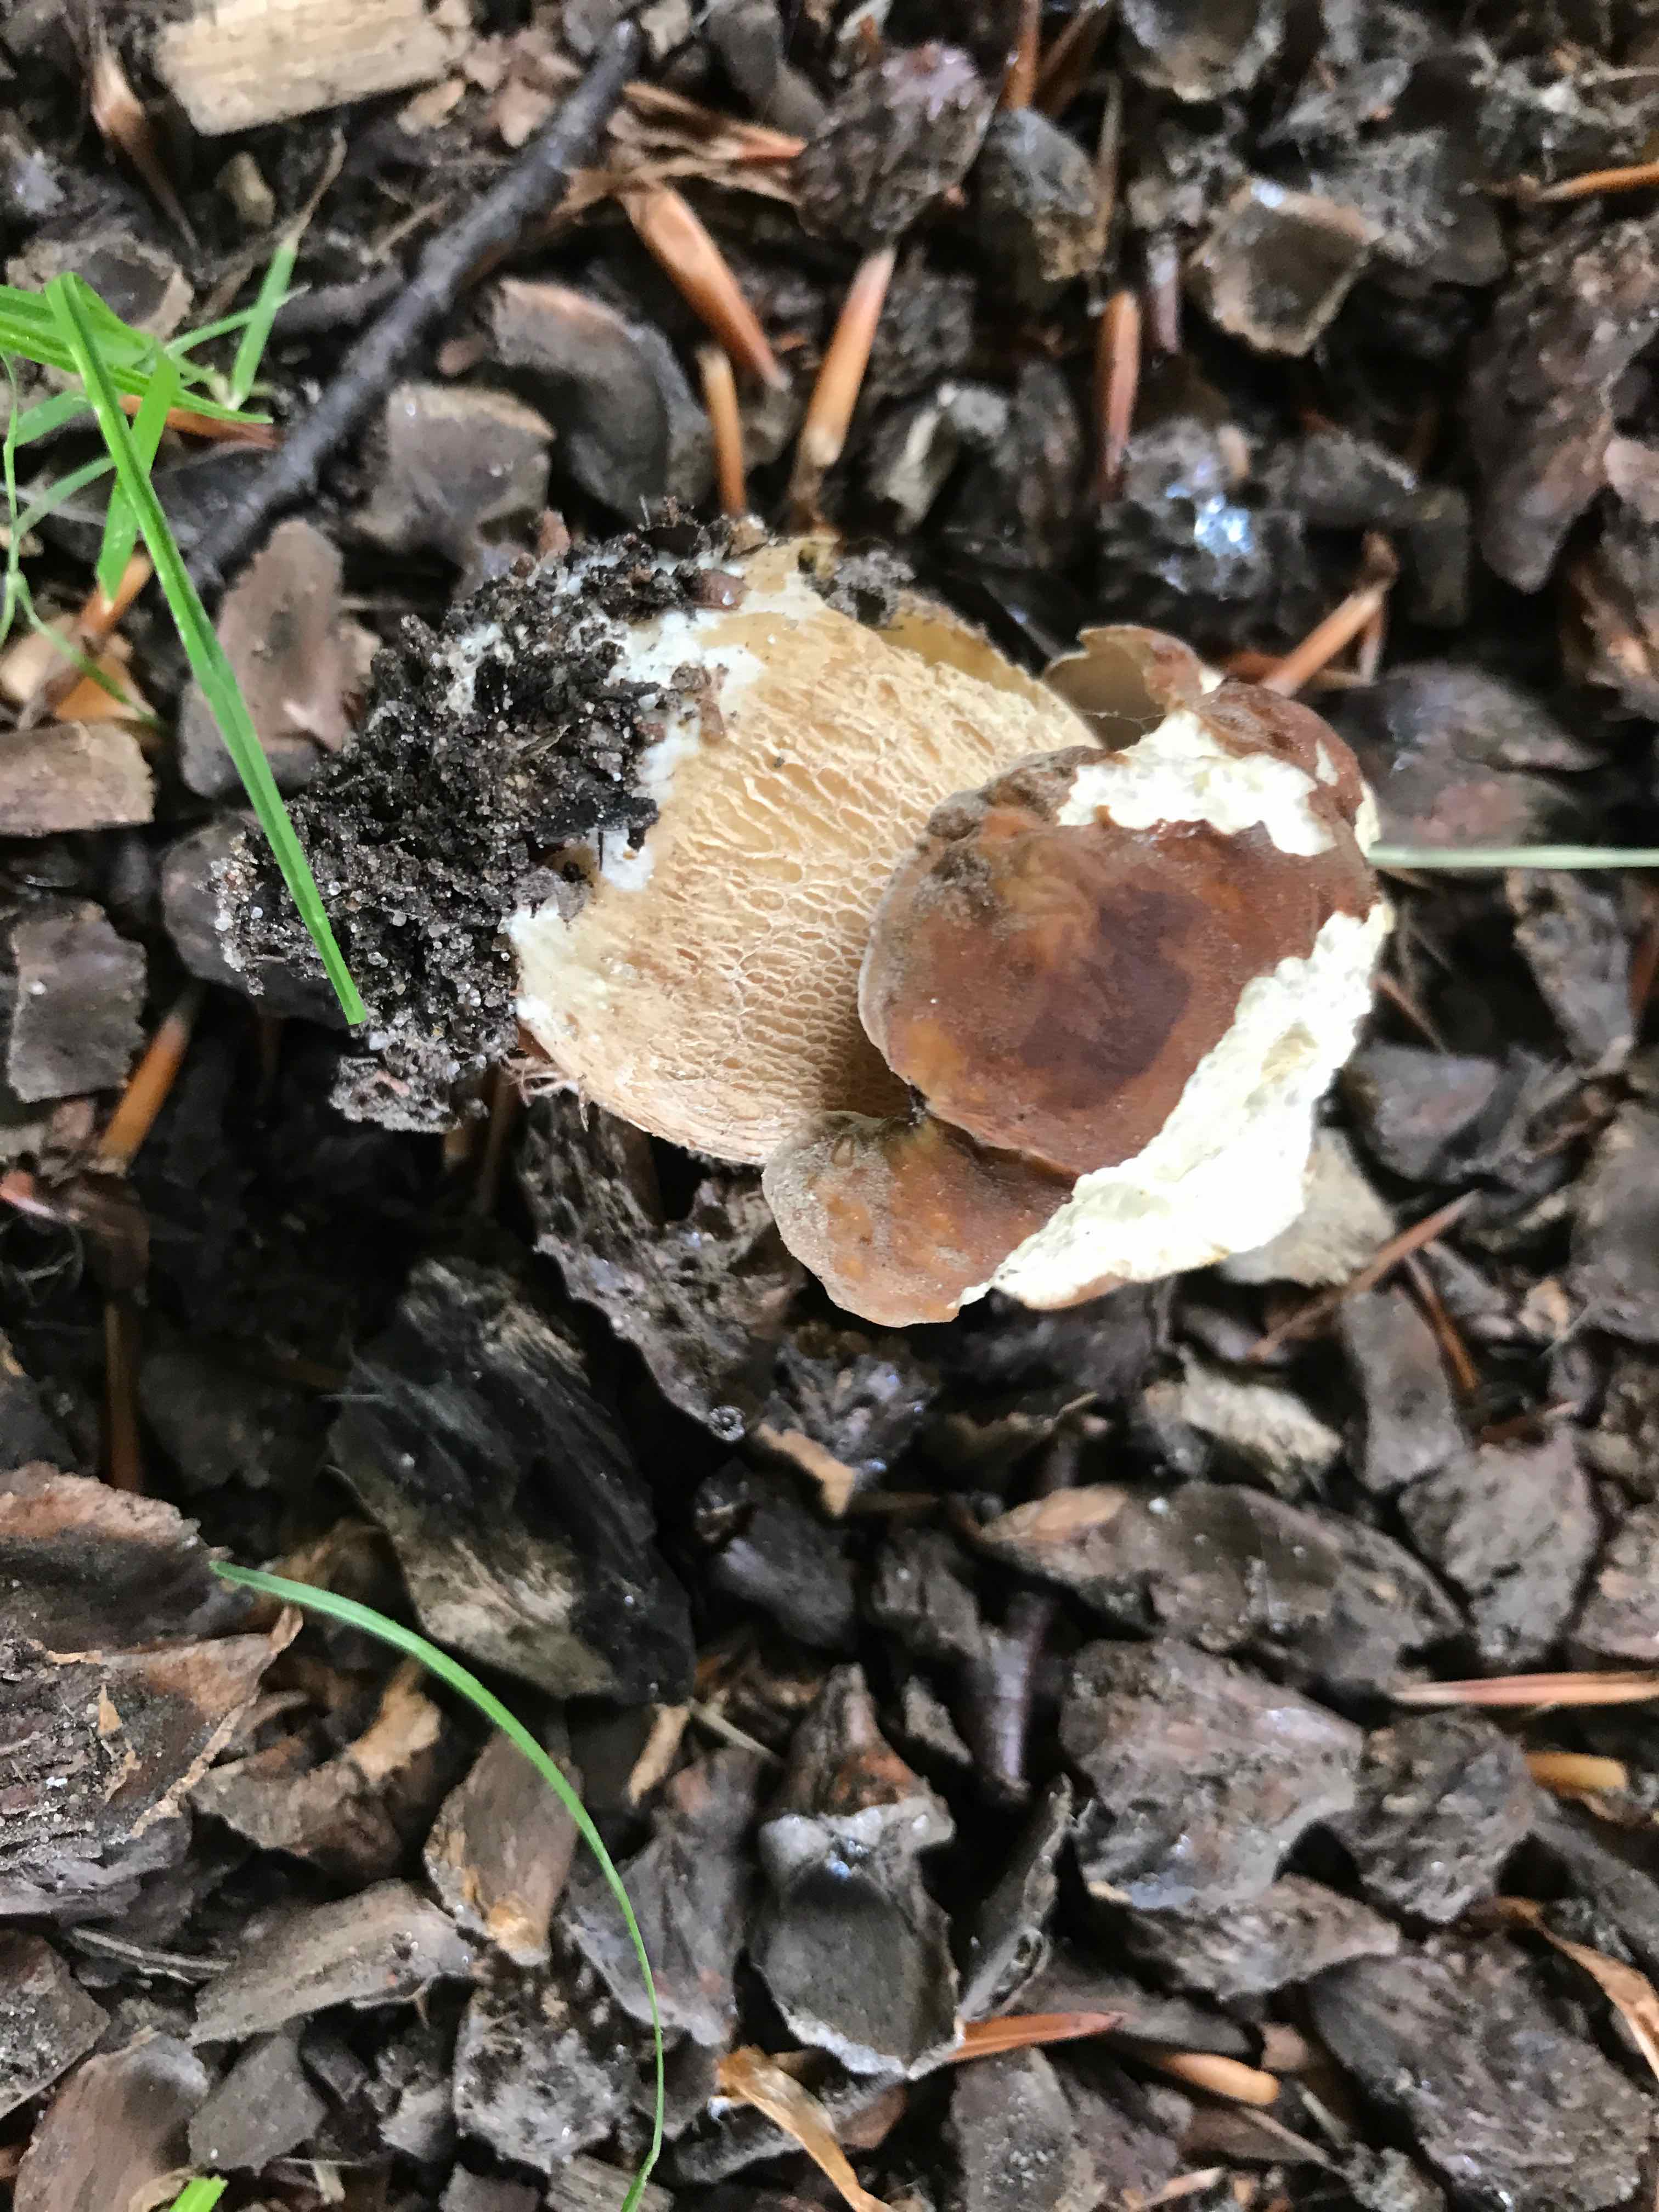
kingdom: Fungi
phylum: Basidiomycota
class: Agaricomycetes
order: Boletales
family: Boletaceae
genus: Boletus
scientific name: Boletus reticulatus
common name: sommer-rørhat
